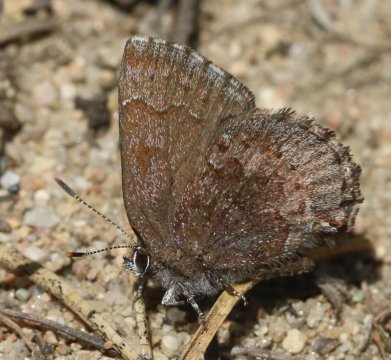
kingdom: Animalia
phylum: Arthropoda
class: Insecta
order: Lepidoptera
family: Lycaenidae
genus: Incisalia
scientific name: Incisalia irioides
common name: Brown Elfin
